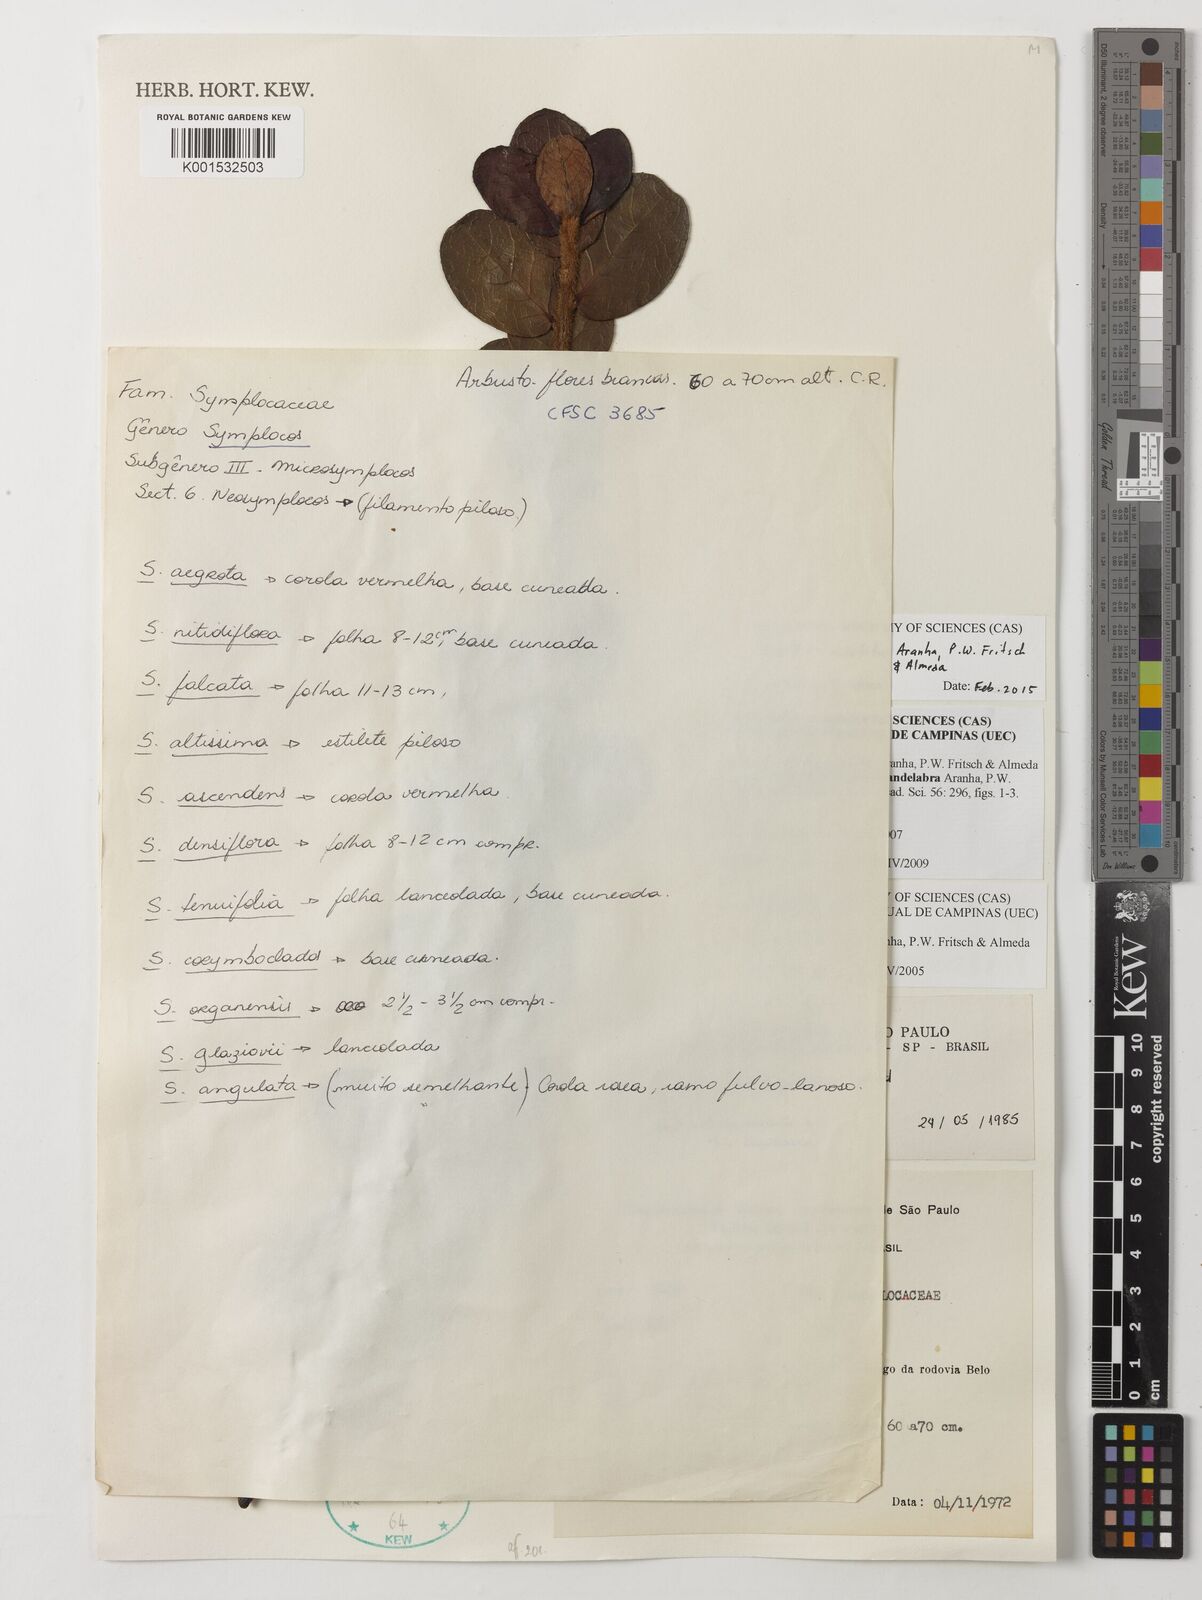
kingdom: Plantae
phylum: Tracheophyta
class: Magnoliopsida
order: Ericales
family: Symplocaceae
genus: Symplocos
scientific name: Symplocos insolita
